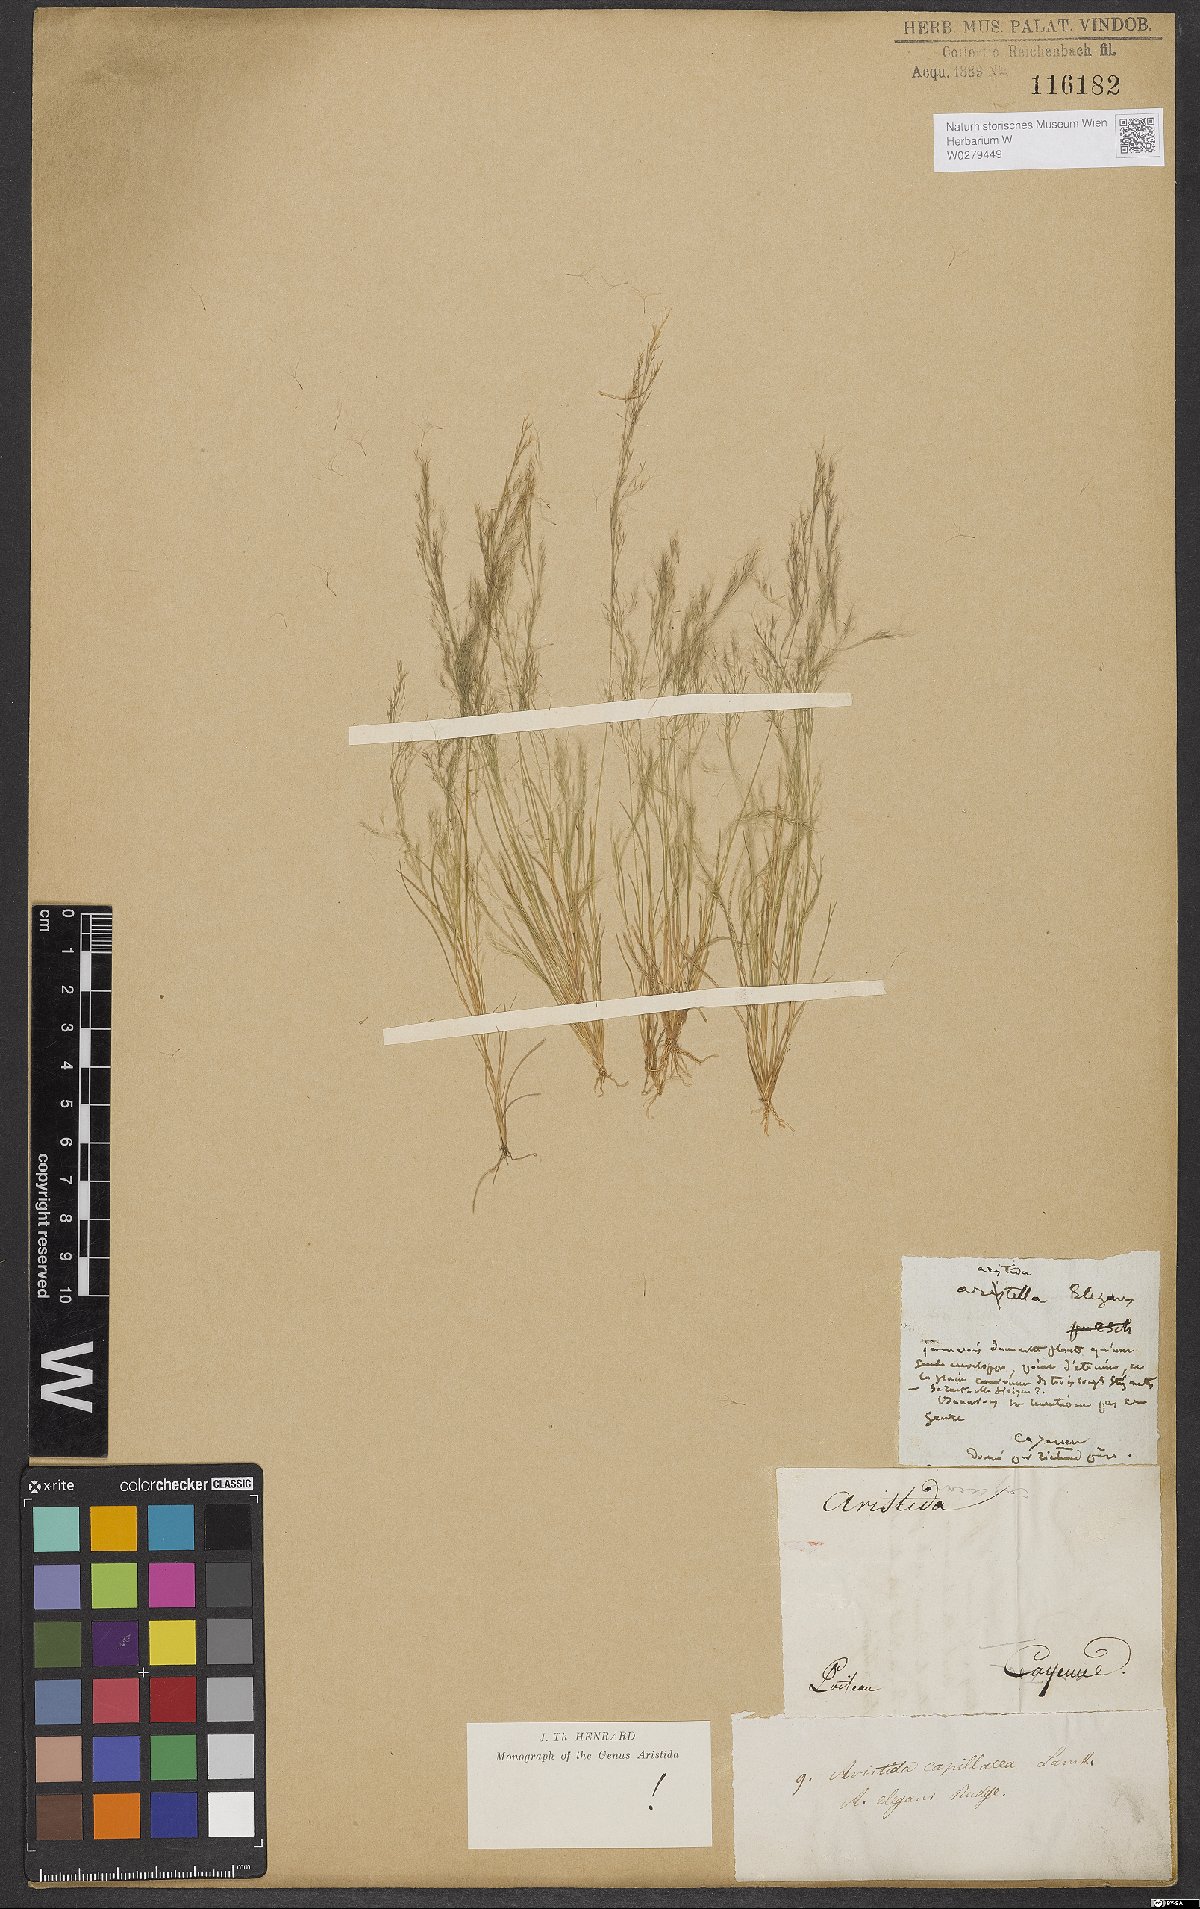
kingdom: Plantae
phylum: Tracheophyta
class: Liliopsida
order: Poales
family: Poaceae
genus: Aristida
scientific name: Aristida capillacea
